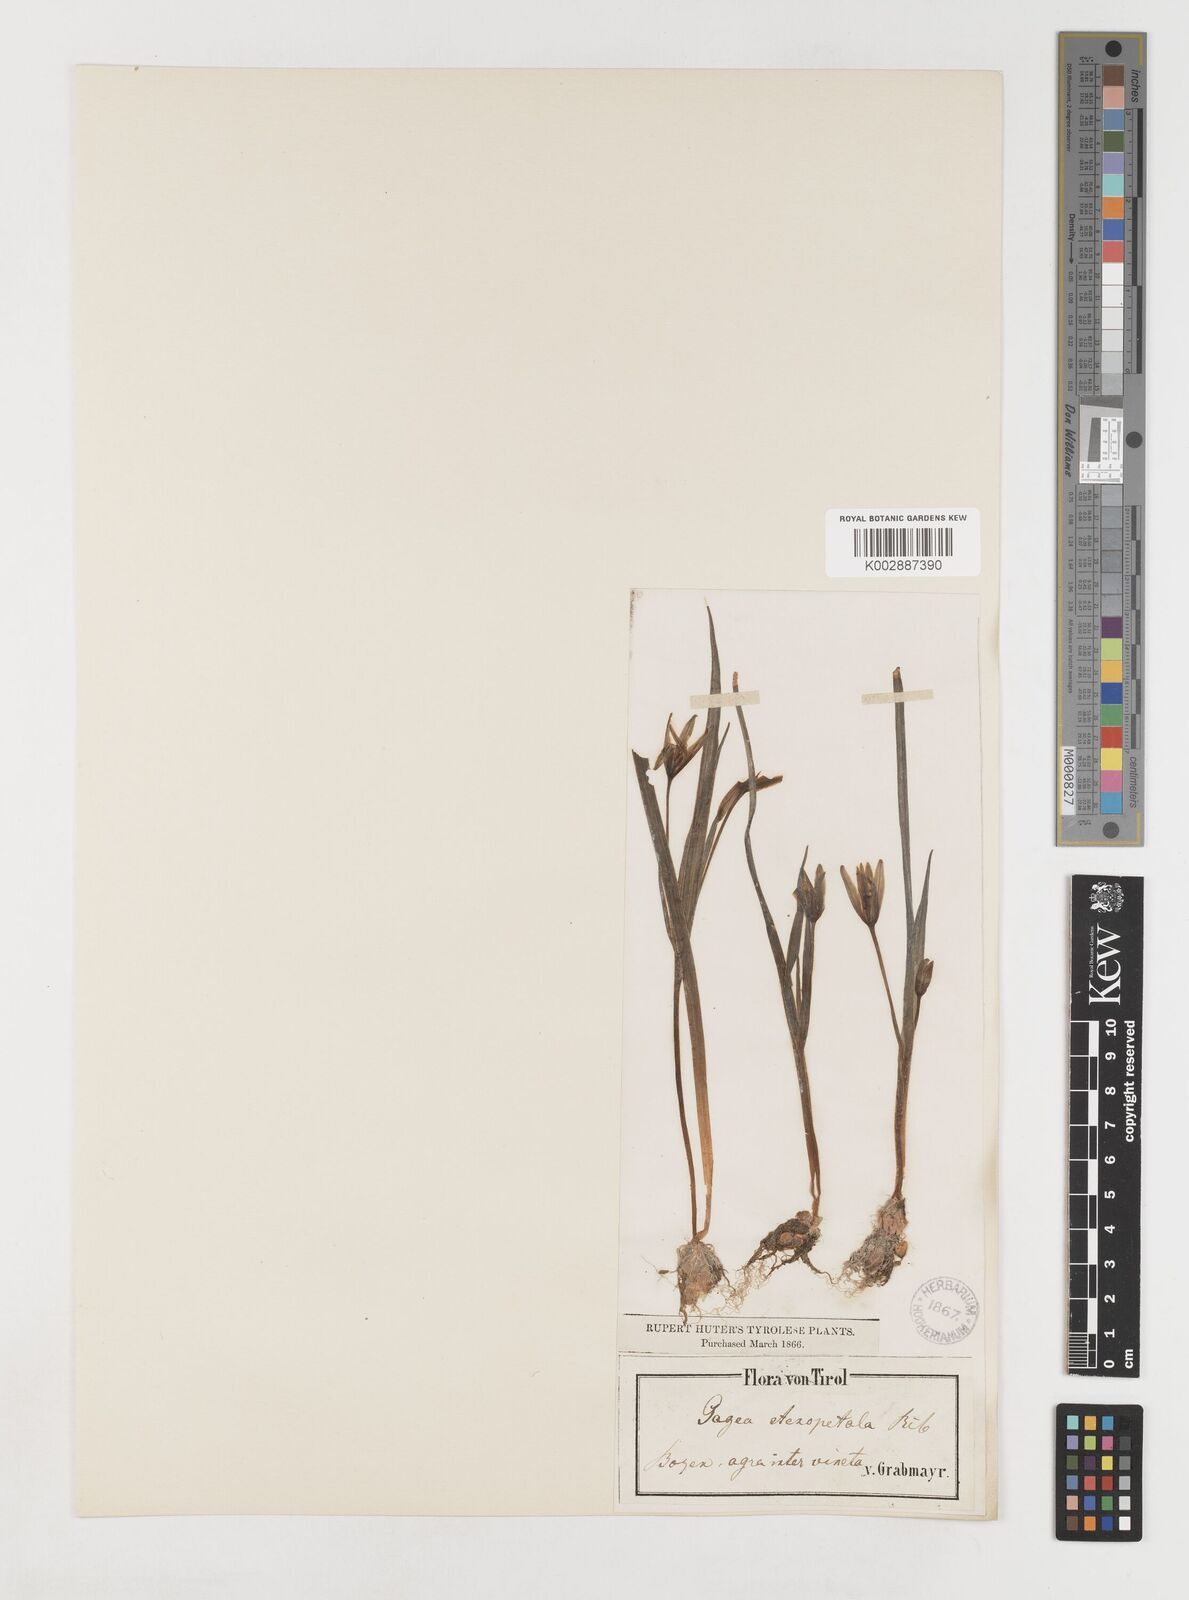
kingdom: Plantae
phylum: Tracheophyta
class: Liliopsida
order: Liliales
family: Liliaceae
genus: Gagea
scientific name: Gagea pratensis
